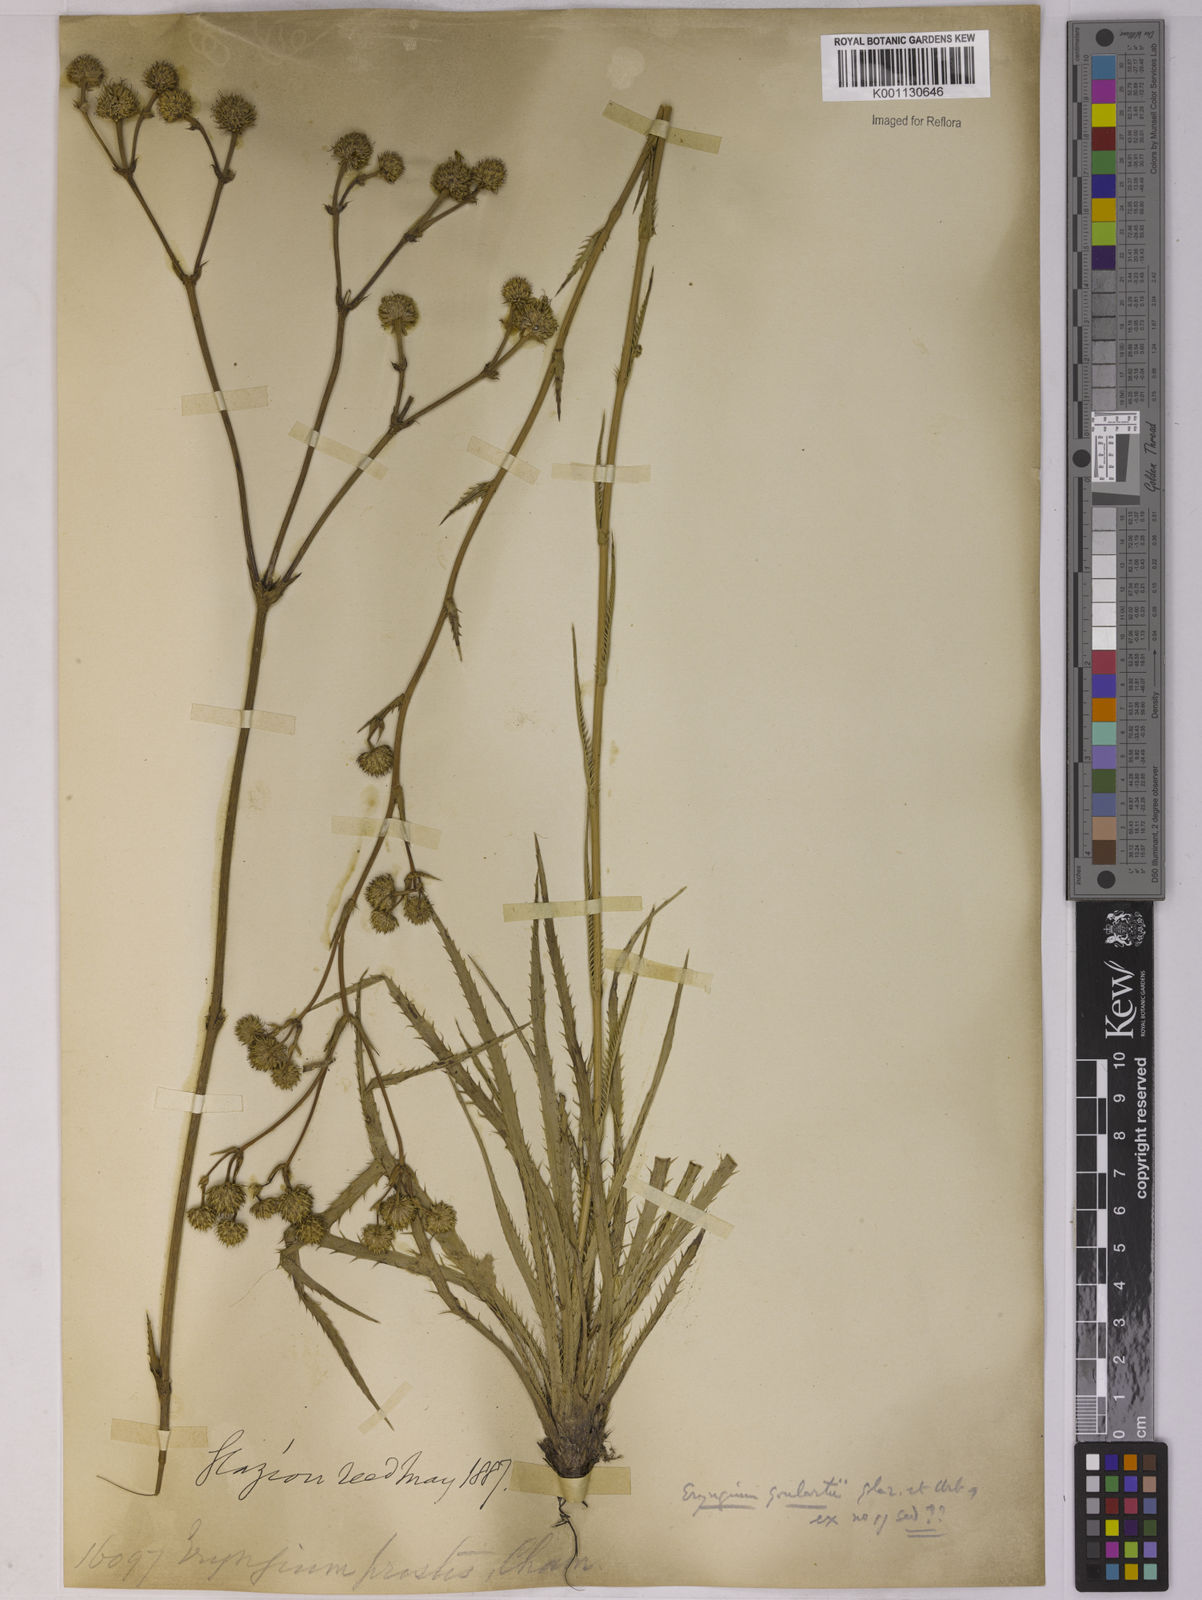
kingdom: Plantae
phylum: Tracheophyta
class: Magnoliopsida
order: Apiales
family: Apiaceae
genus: Eryngium
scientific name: Eryngium goulartii
